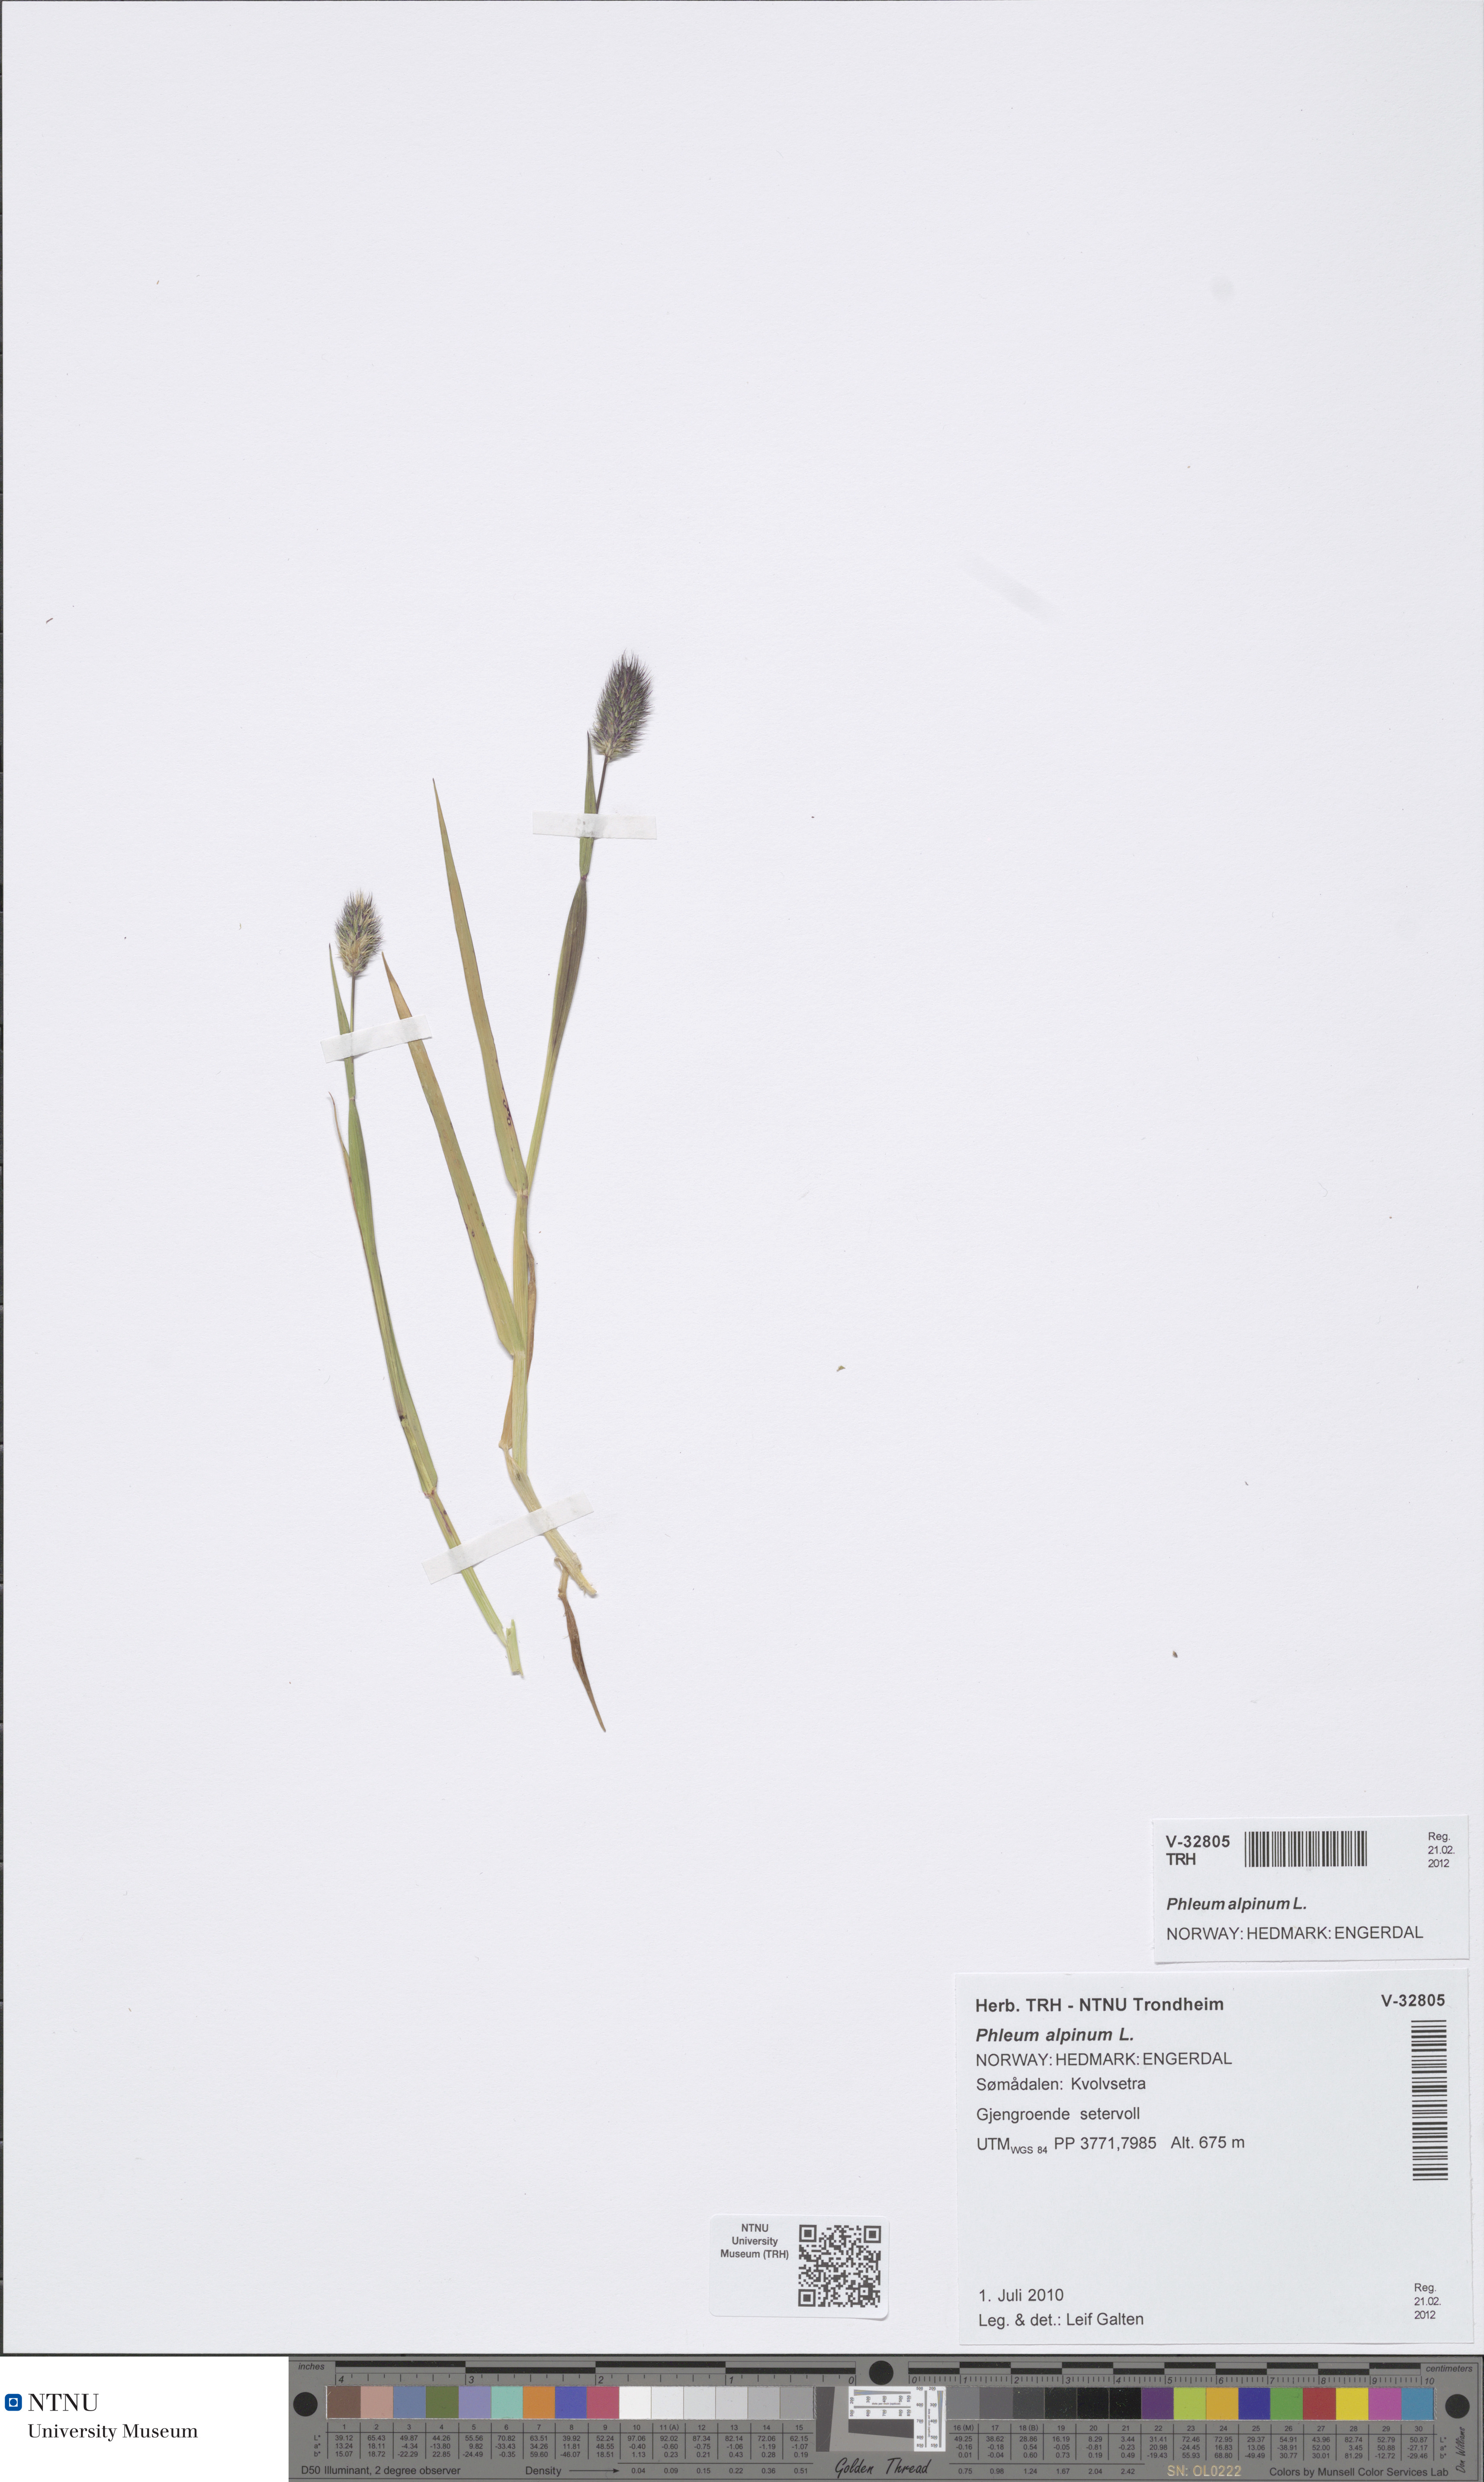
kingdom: Plantae
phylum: Tracheophyta
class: Liliopsida
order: Poales
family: Poaceae
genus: Phleum
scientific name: Phleum alpinum
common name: Alpine cat's-tail
